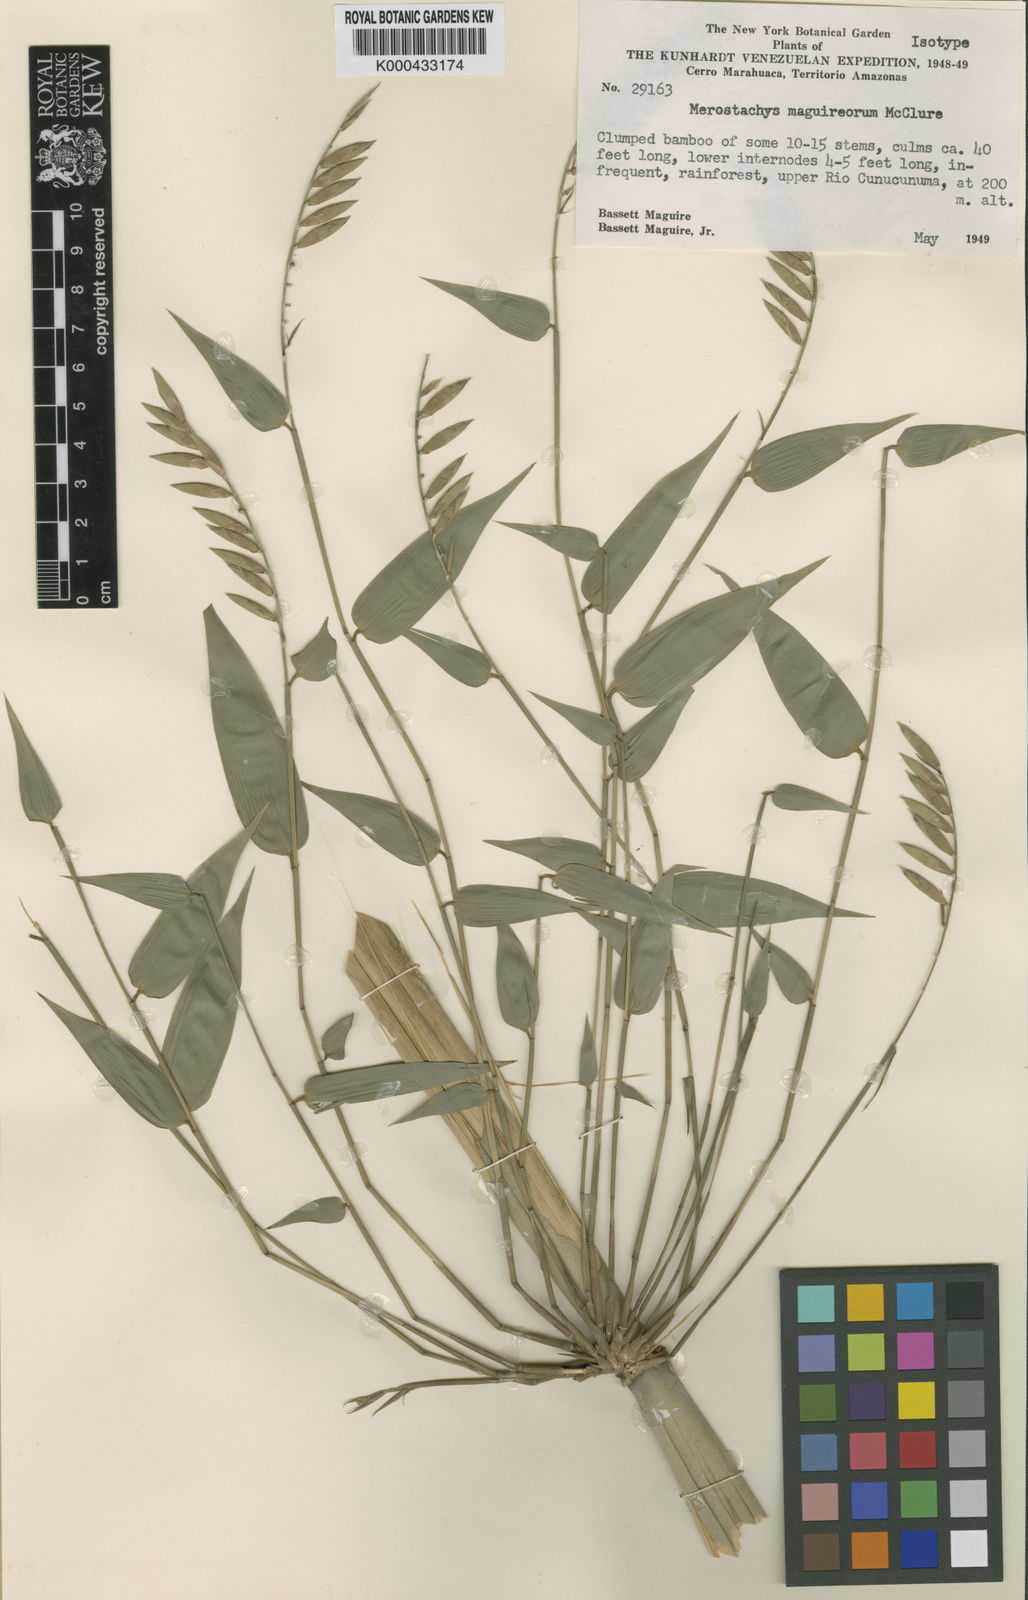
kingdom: Plantae
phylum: Tracheophyta
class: Liliopsida
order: Poales
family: Poaceae
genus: Merostachys
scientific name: Merostachys maguireorum
